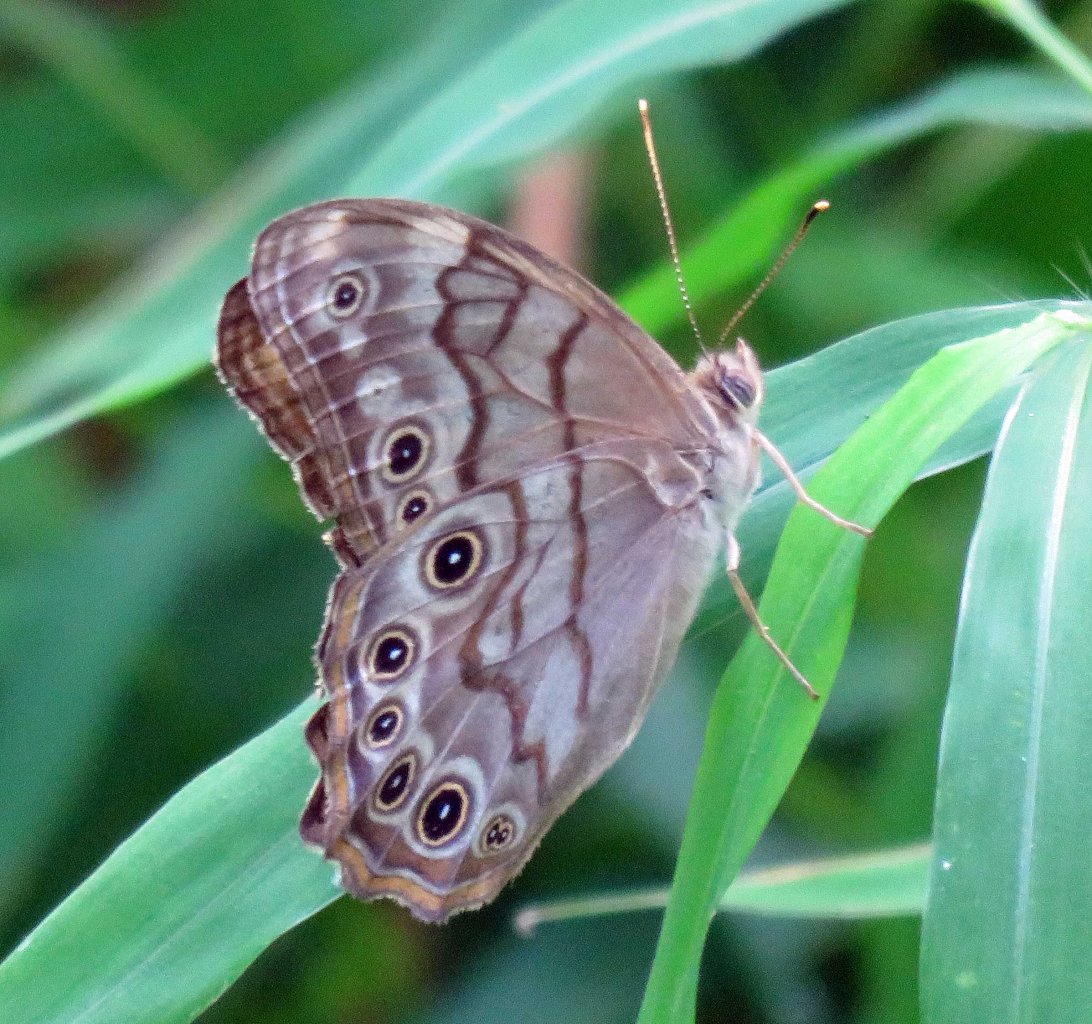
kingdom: Animalia
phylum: Arthropoda
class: Insecta
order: Lepidoptera
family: Nymphalidae
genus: Lethe
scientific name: Lethe creola
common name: Creole Pearly-Eye
